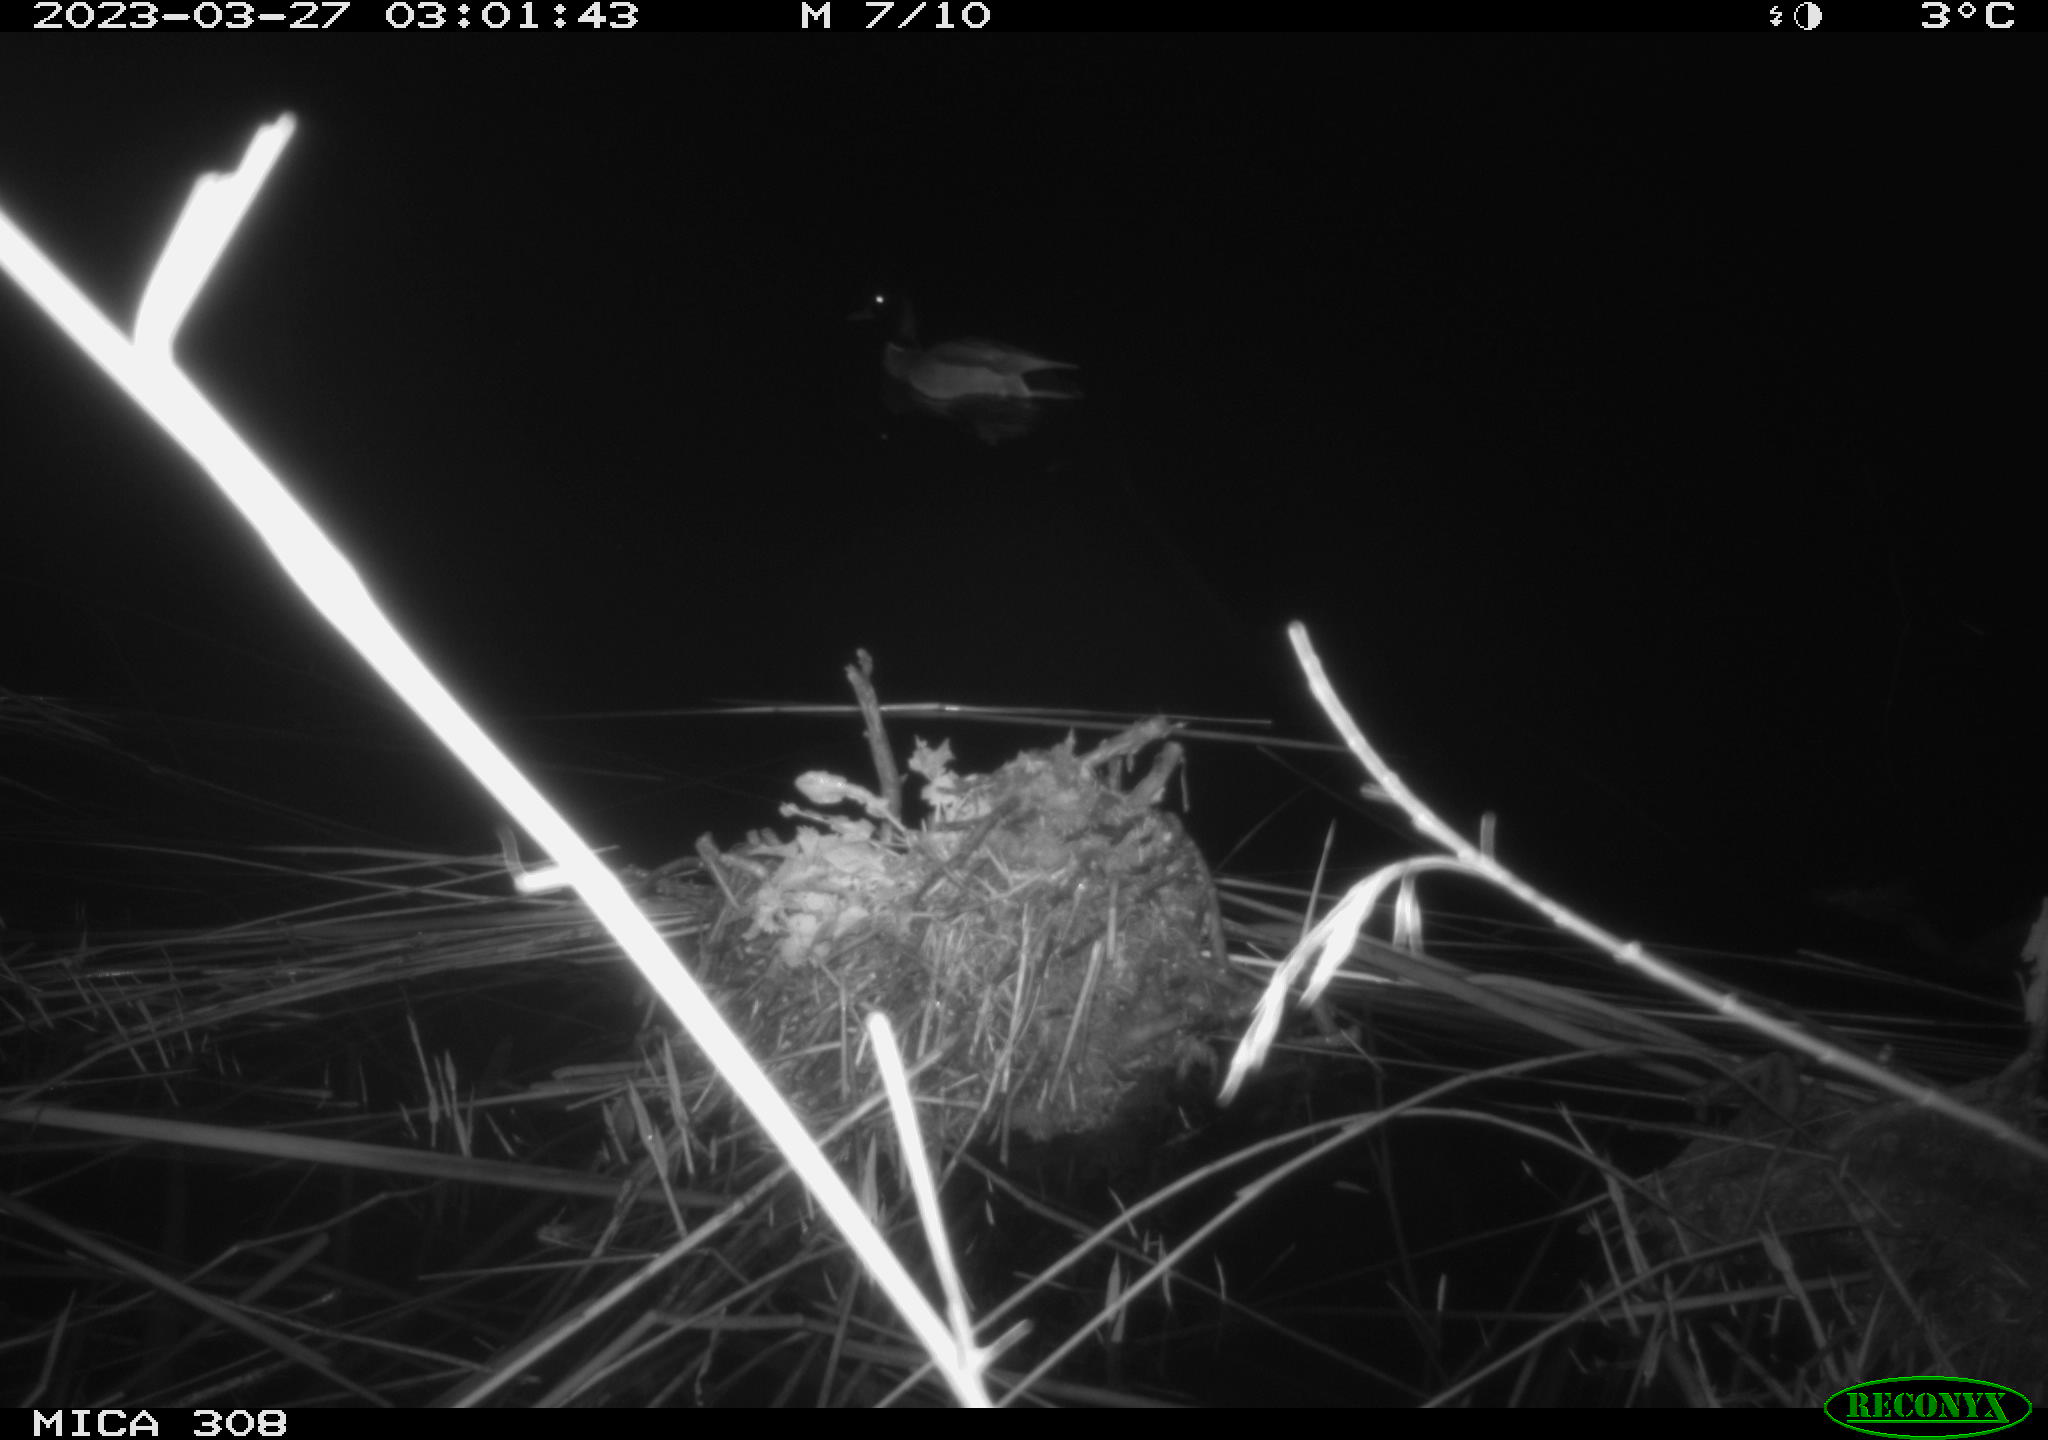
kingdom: Animalia
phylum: Chordata
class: Aves
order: Anseriformes
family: Anatidae
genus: Anas
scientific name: Anas
